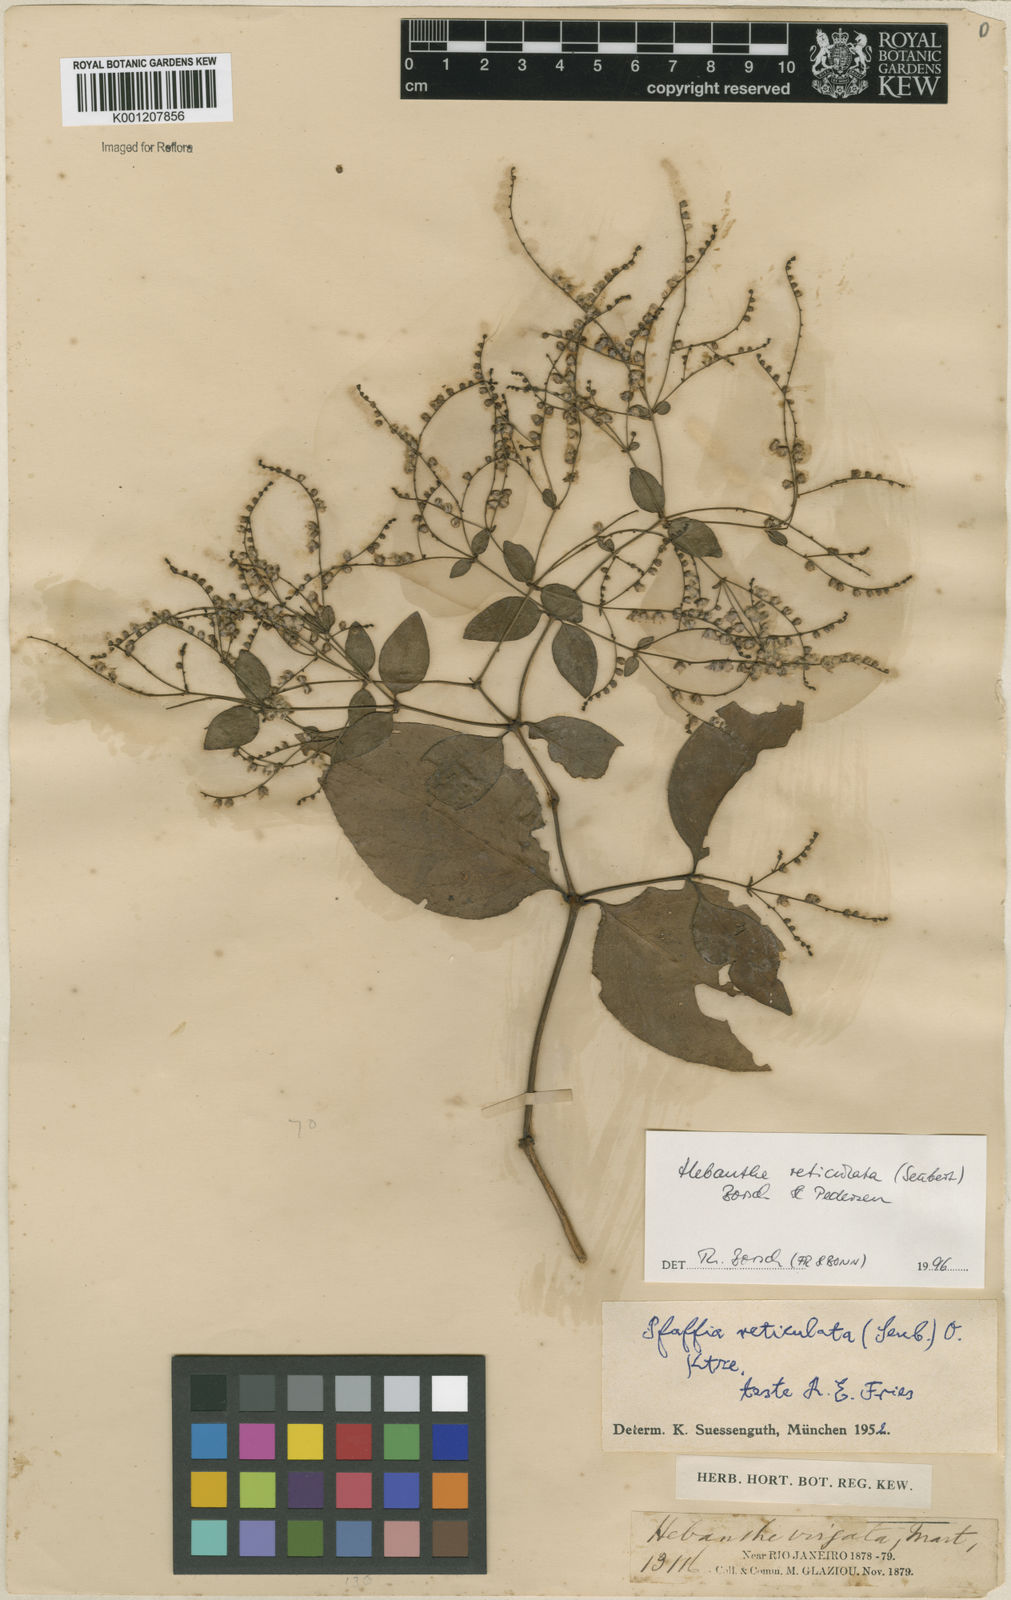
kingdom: Plantae
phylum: Tracheophyta
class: Magnoliopsida
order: Caryophyllales
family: Amaranthaceae
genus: Hebanthe
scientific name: Hebanthe reticulata
